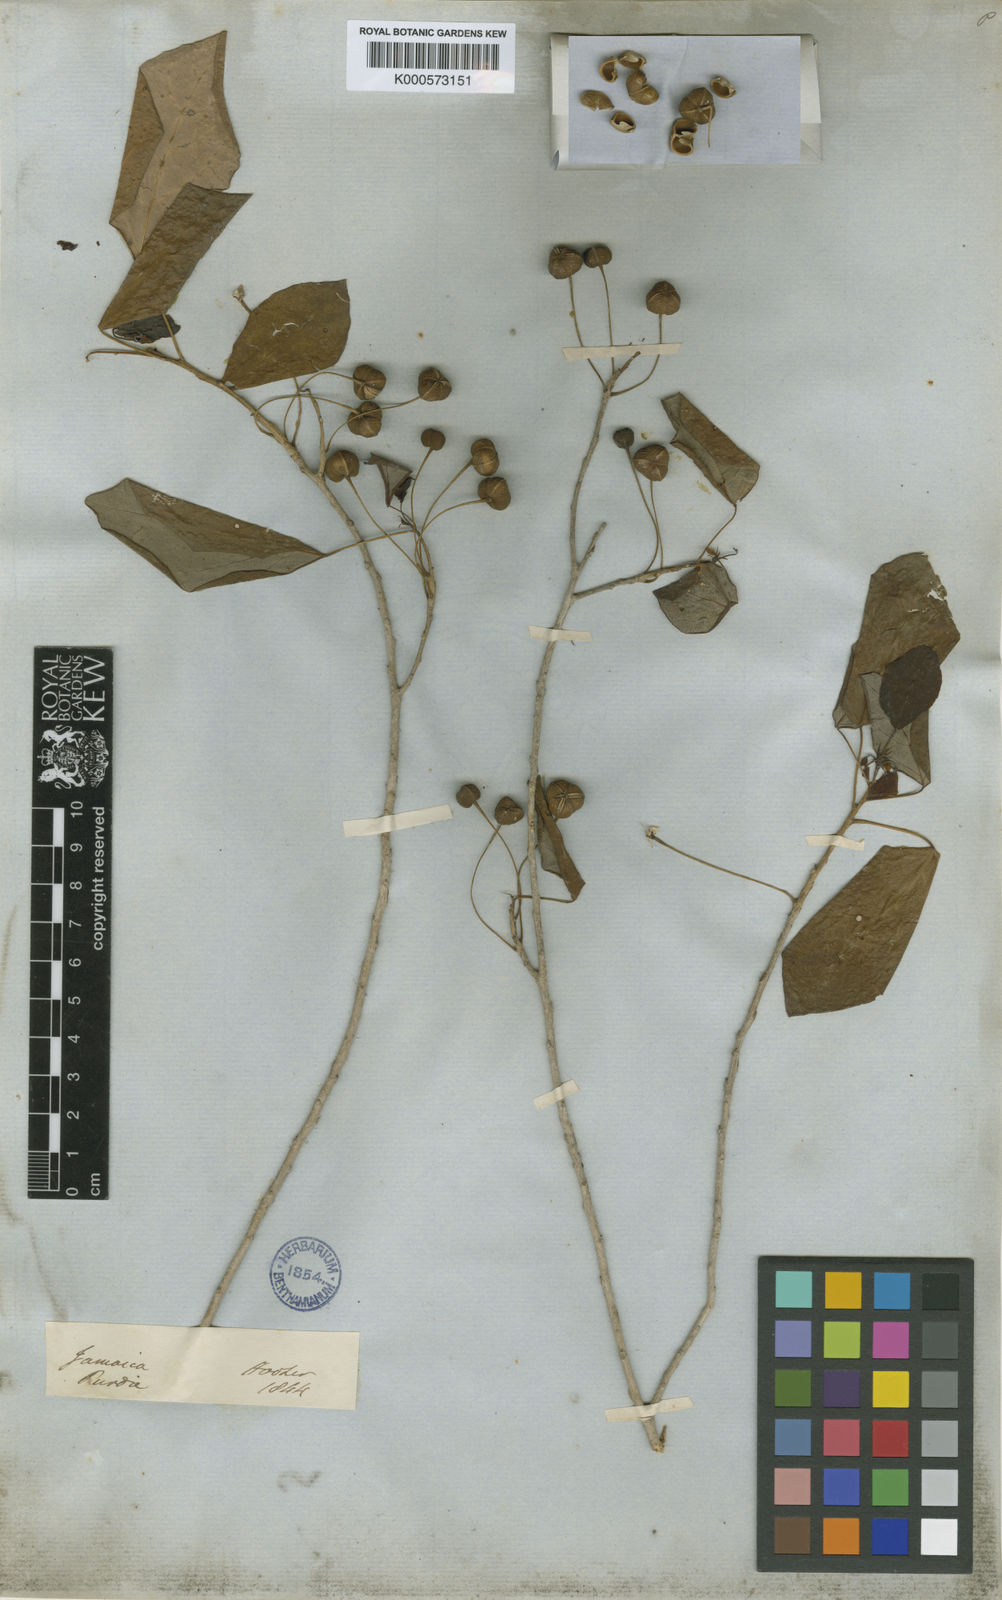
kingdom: Plantae
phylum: Tracheophyta
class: Magnoliopsida
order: Malpighiales
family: Phyllanthaceae
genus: Astrocasia
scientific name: Astrocasia tremula
